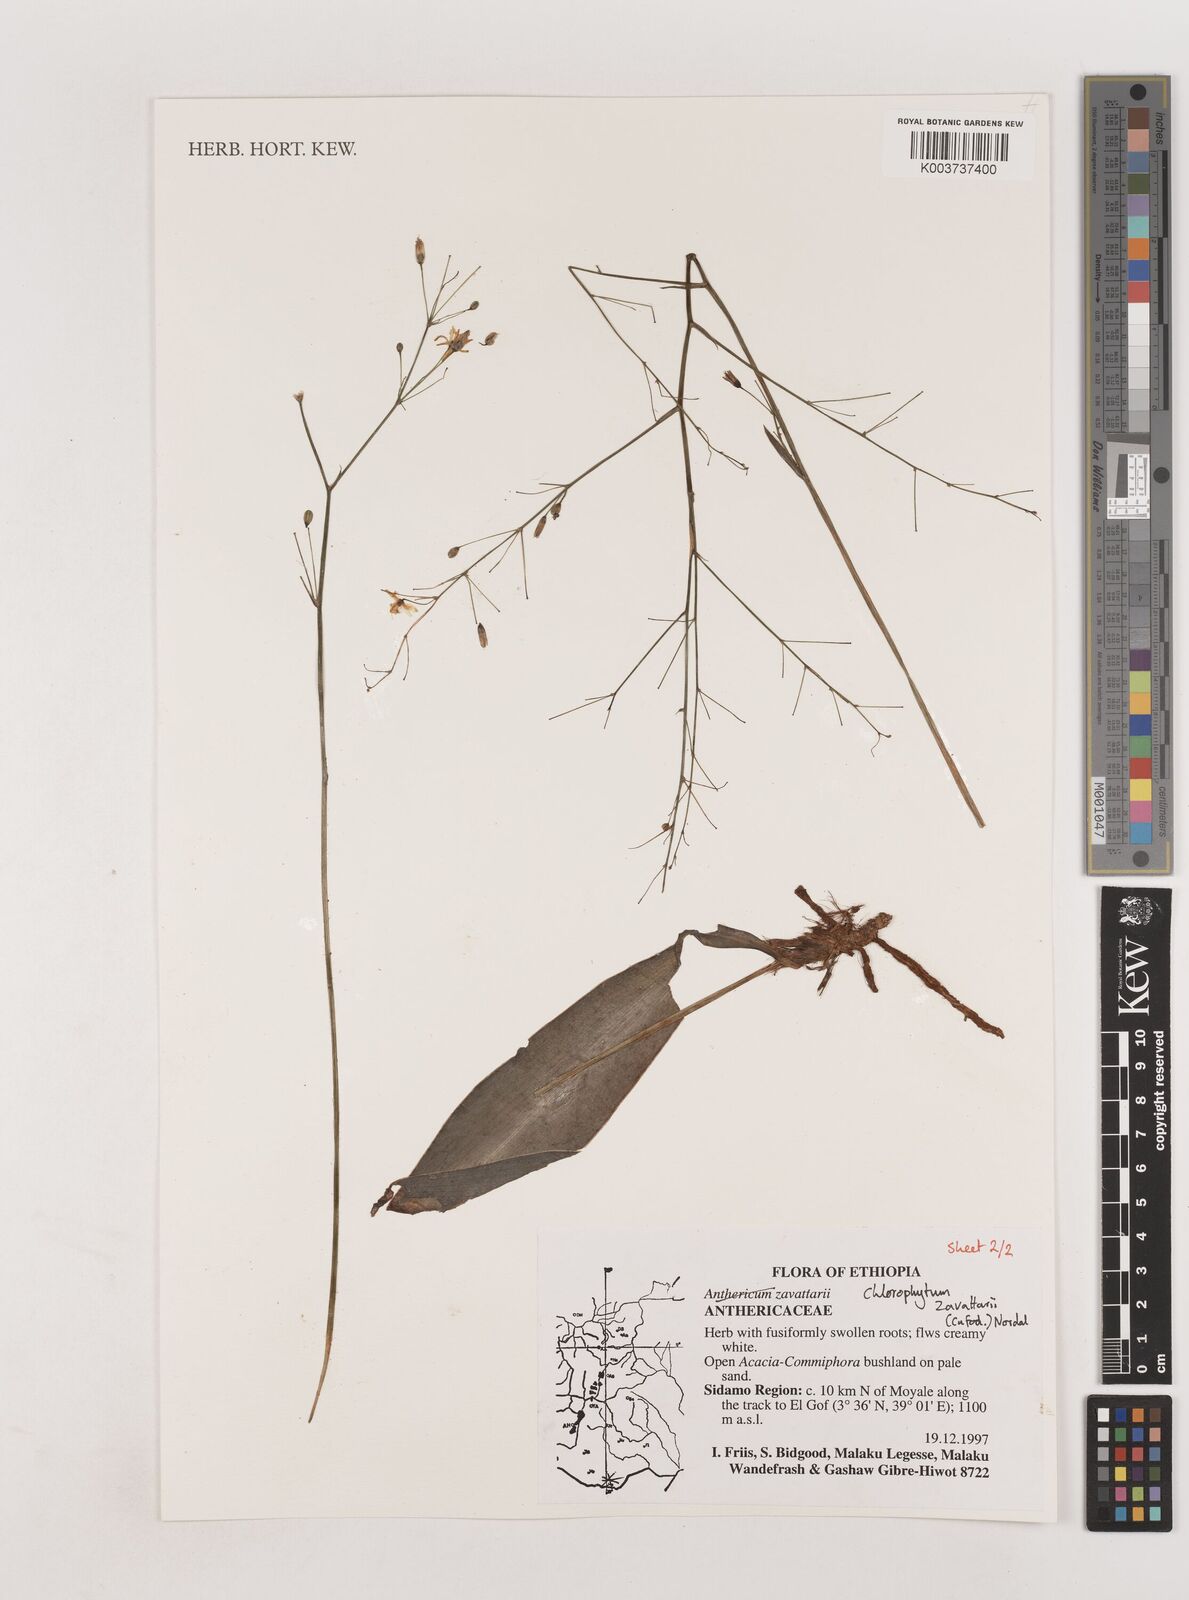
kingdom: Plantae
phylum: Tracheophyta
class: Liliopsida
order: Asparagales
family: Asparagaceae
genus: Chlorophytum
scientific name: Chlorophytum zavattarii
